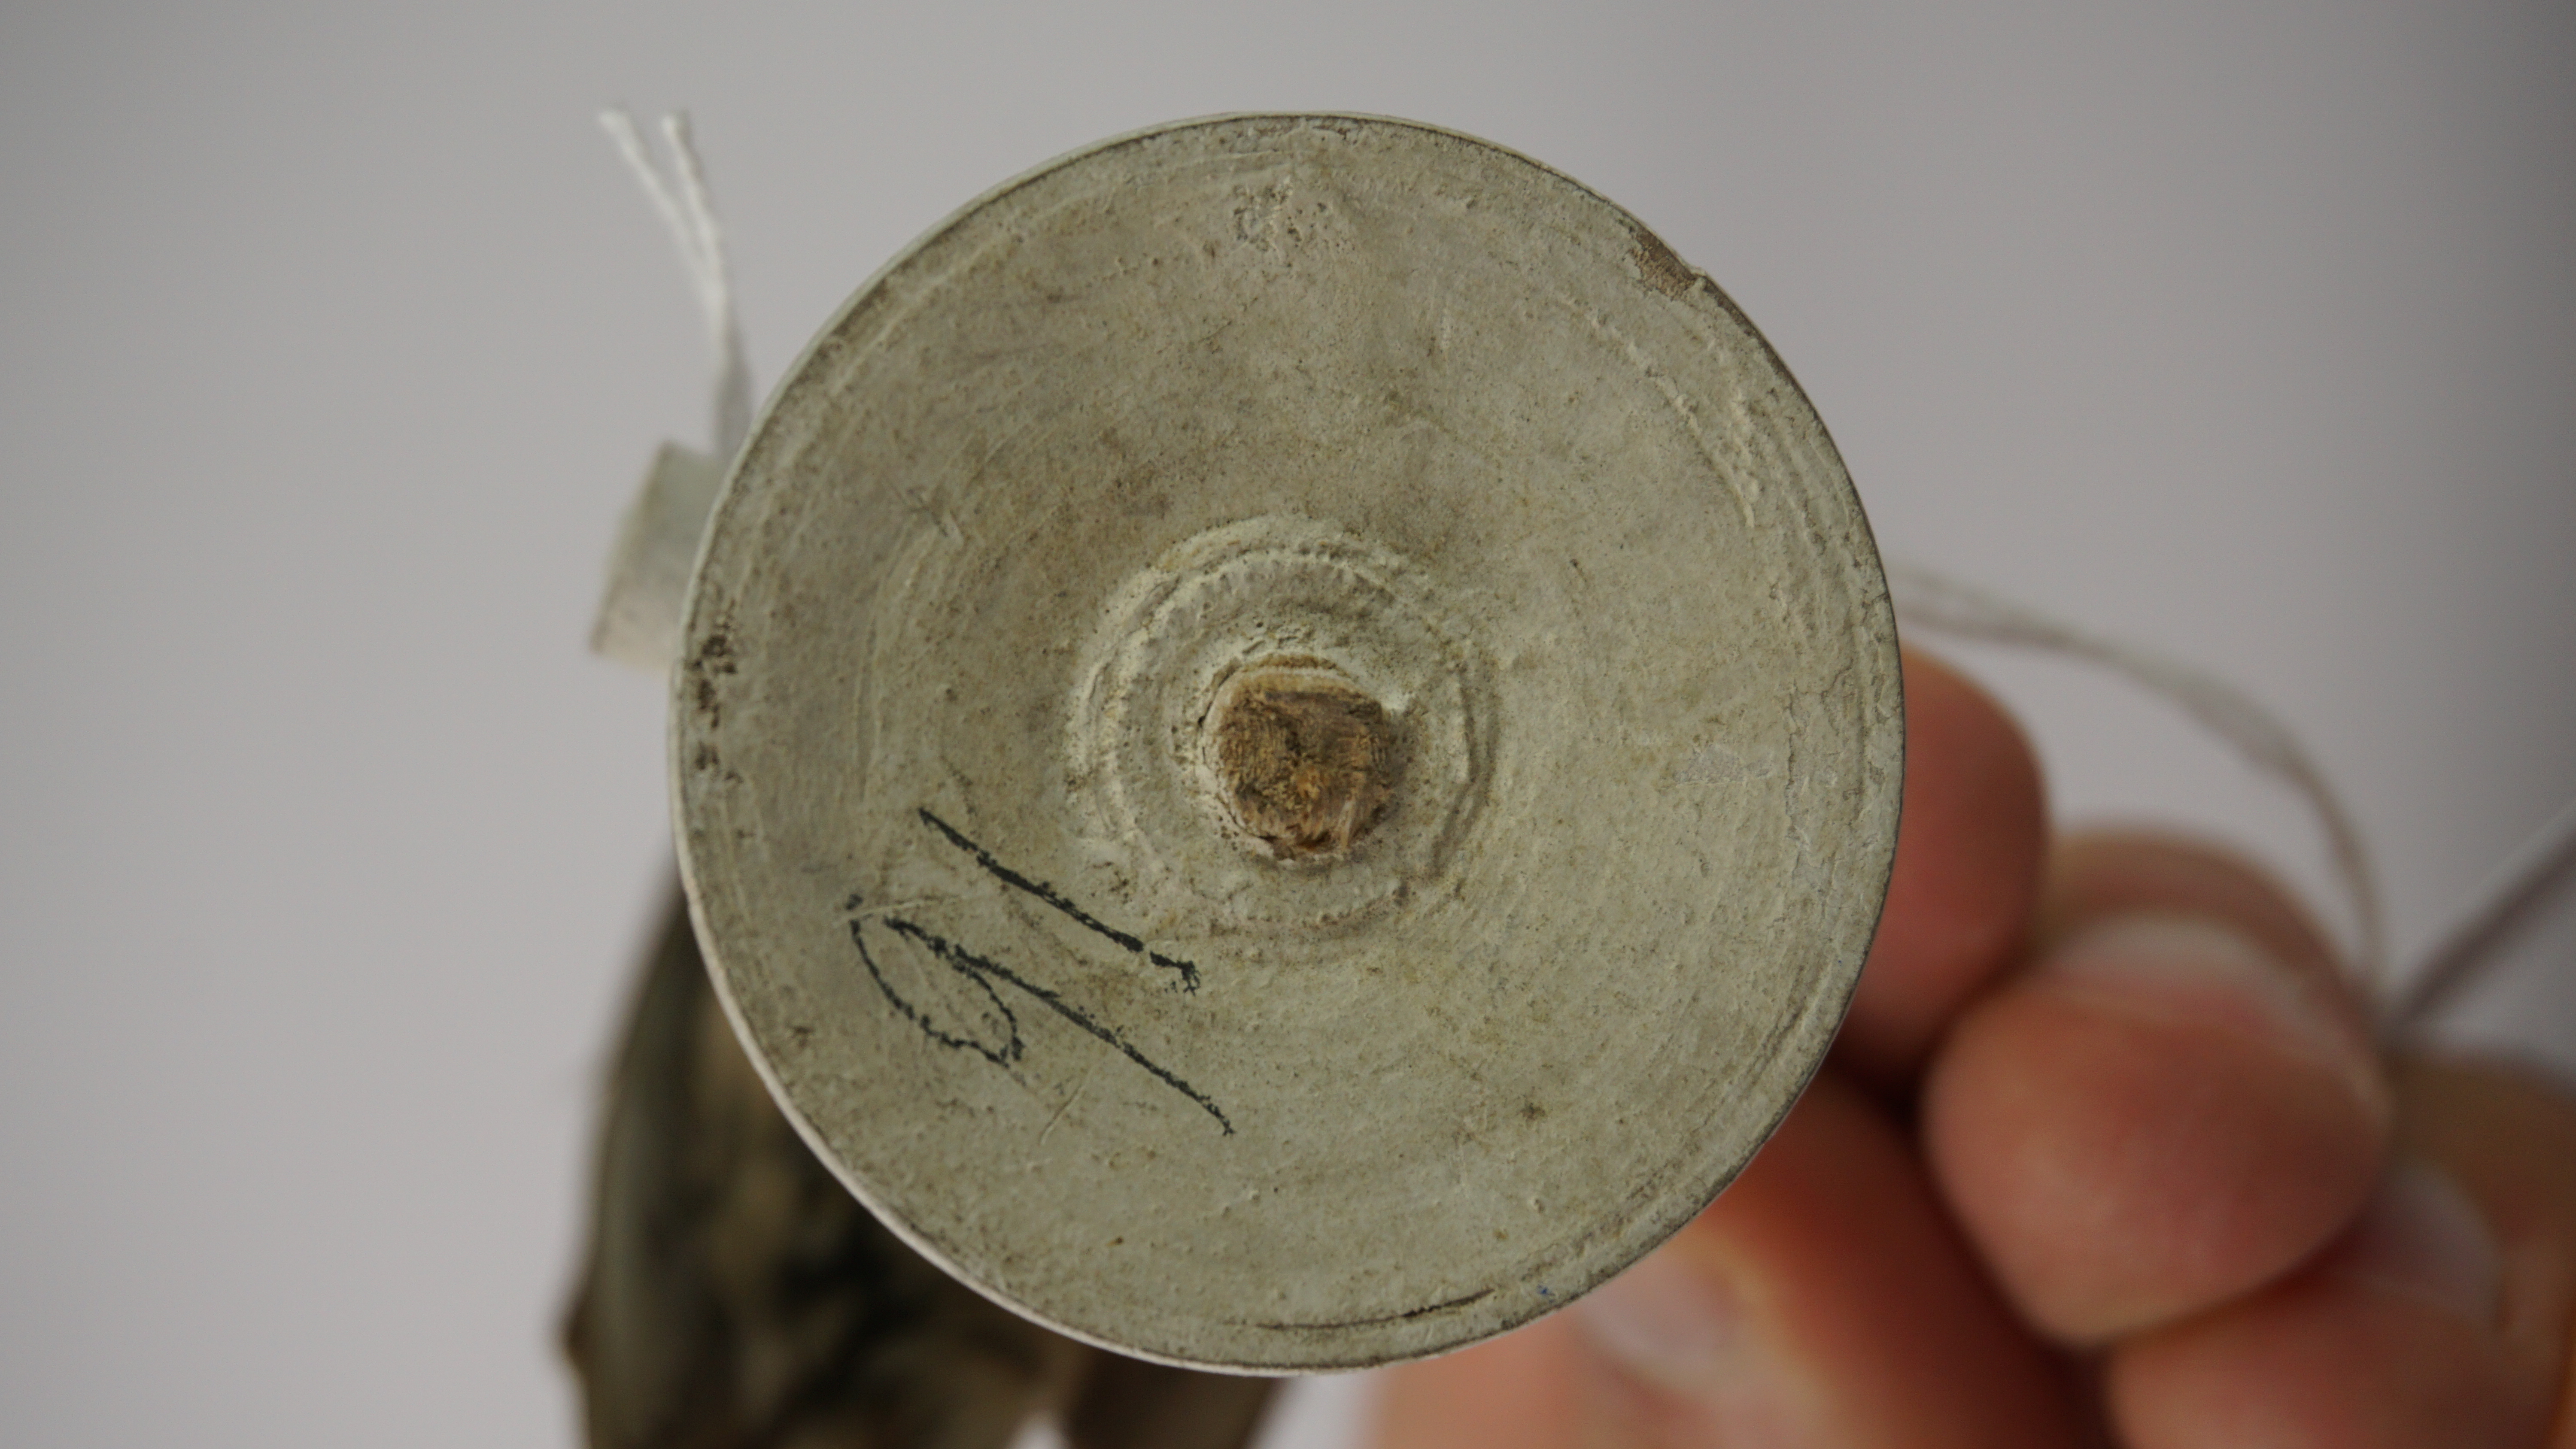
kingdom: Animalia
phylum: Chordata
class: Aves
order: Passeriformes
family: Sylviidae
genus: Sylvia
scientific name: Sylvia conspicillata
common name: Spectacled warbler
